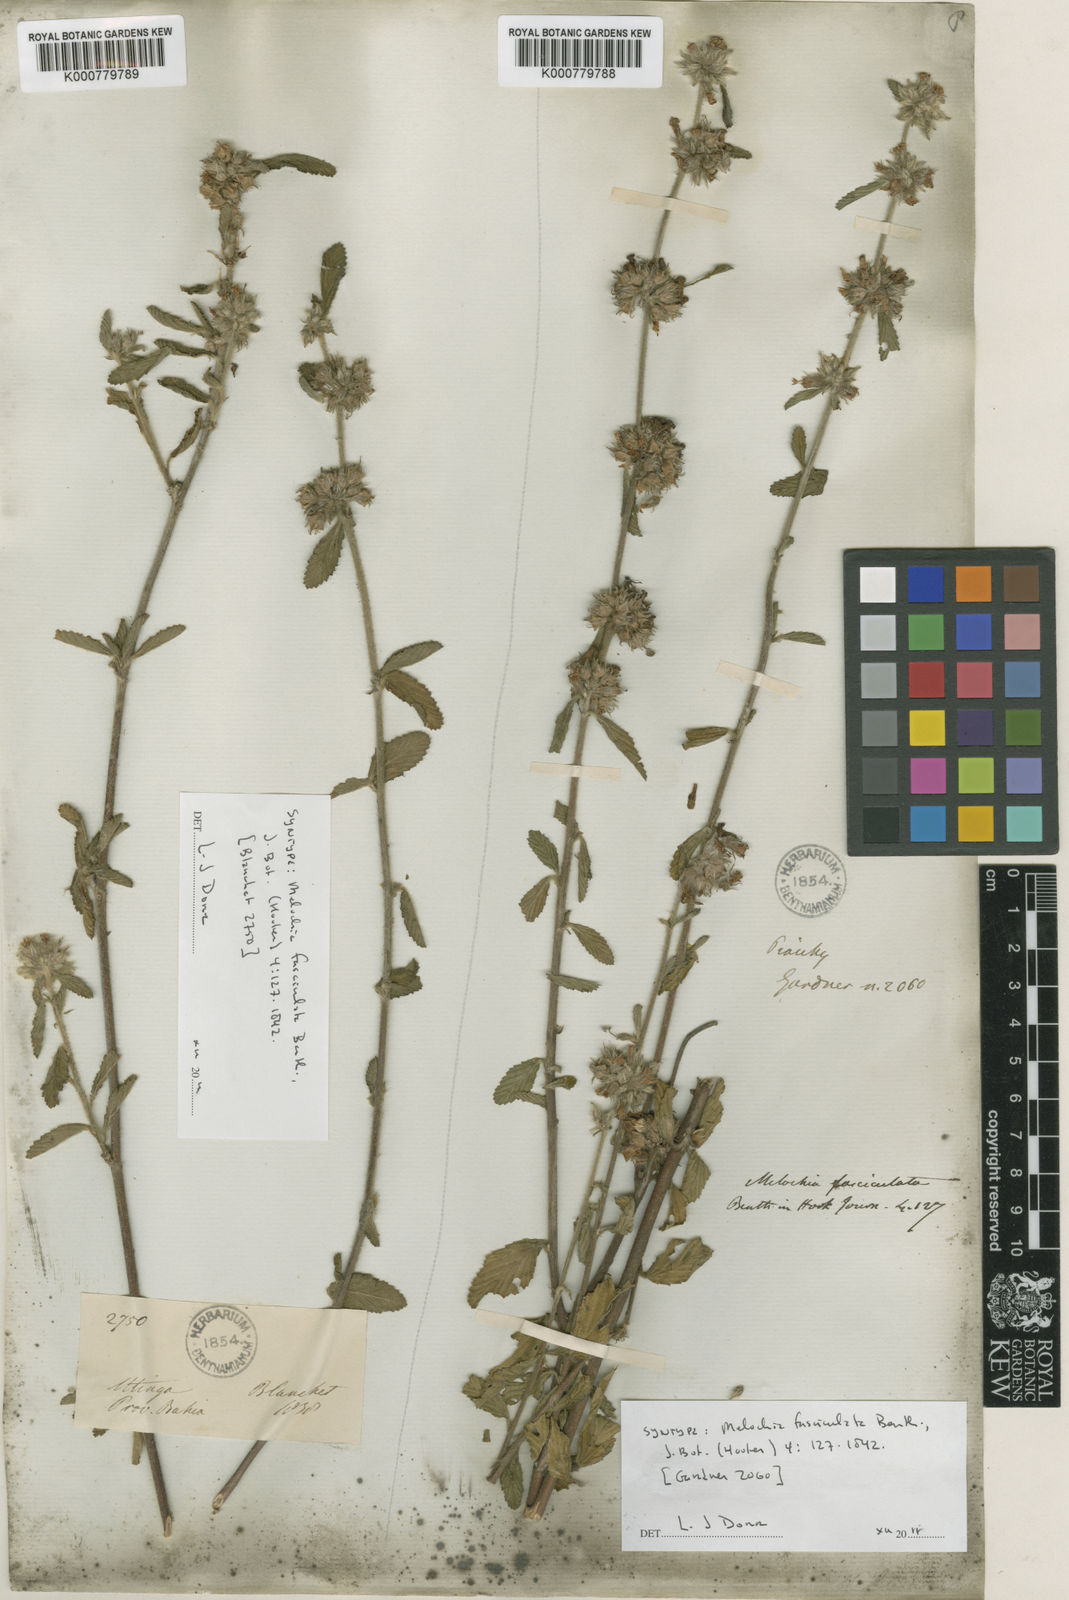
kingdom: Plantae
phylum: Tracheophyta
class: Magnoliopsida
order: Malvales
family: Malvaceae
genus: Melochia
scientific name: Melochia parvifolia
